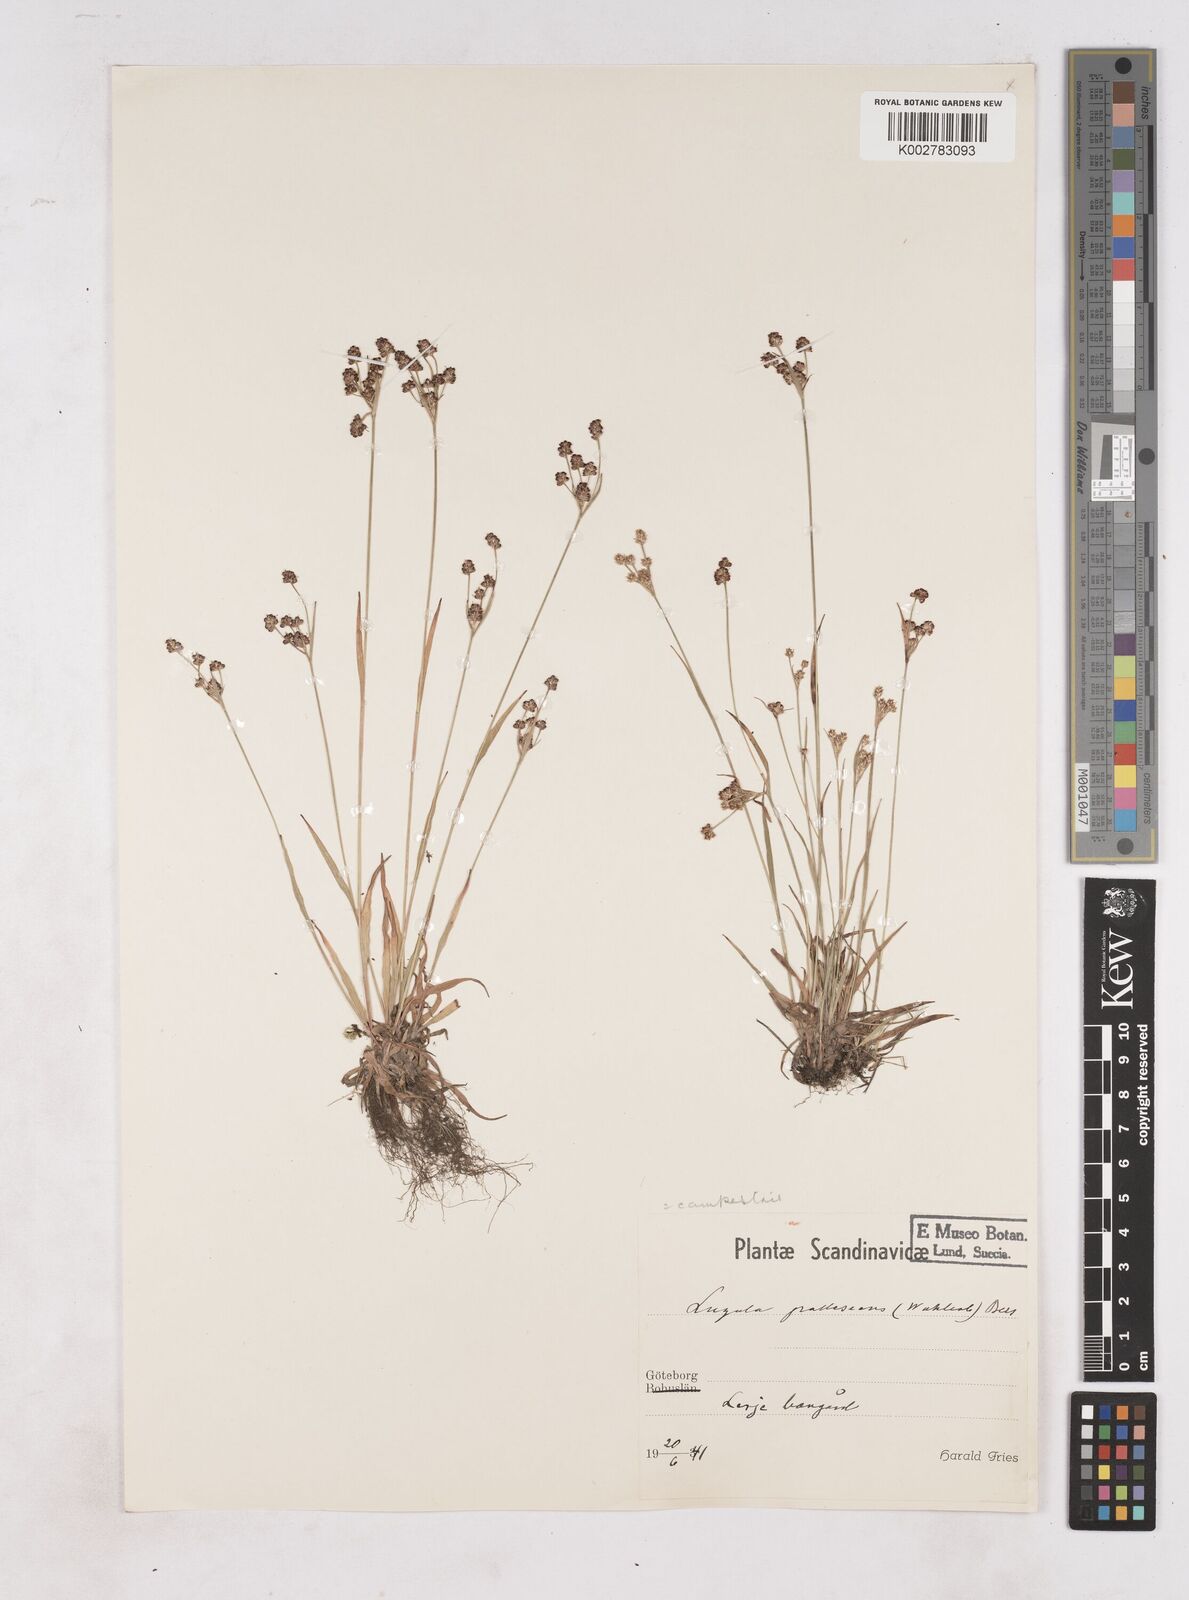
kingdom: Plantae
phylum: Tracheophyta
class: Liliopsida
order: Poales
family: Juncaceae
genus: Luzula
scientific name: Luzula pallescens
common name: Fen wood-rush
